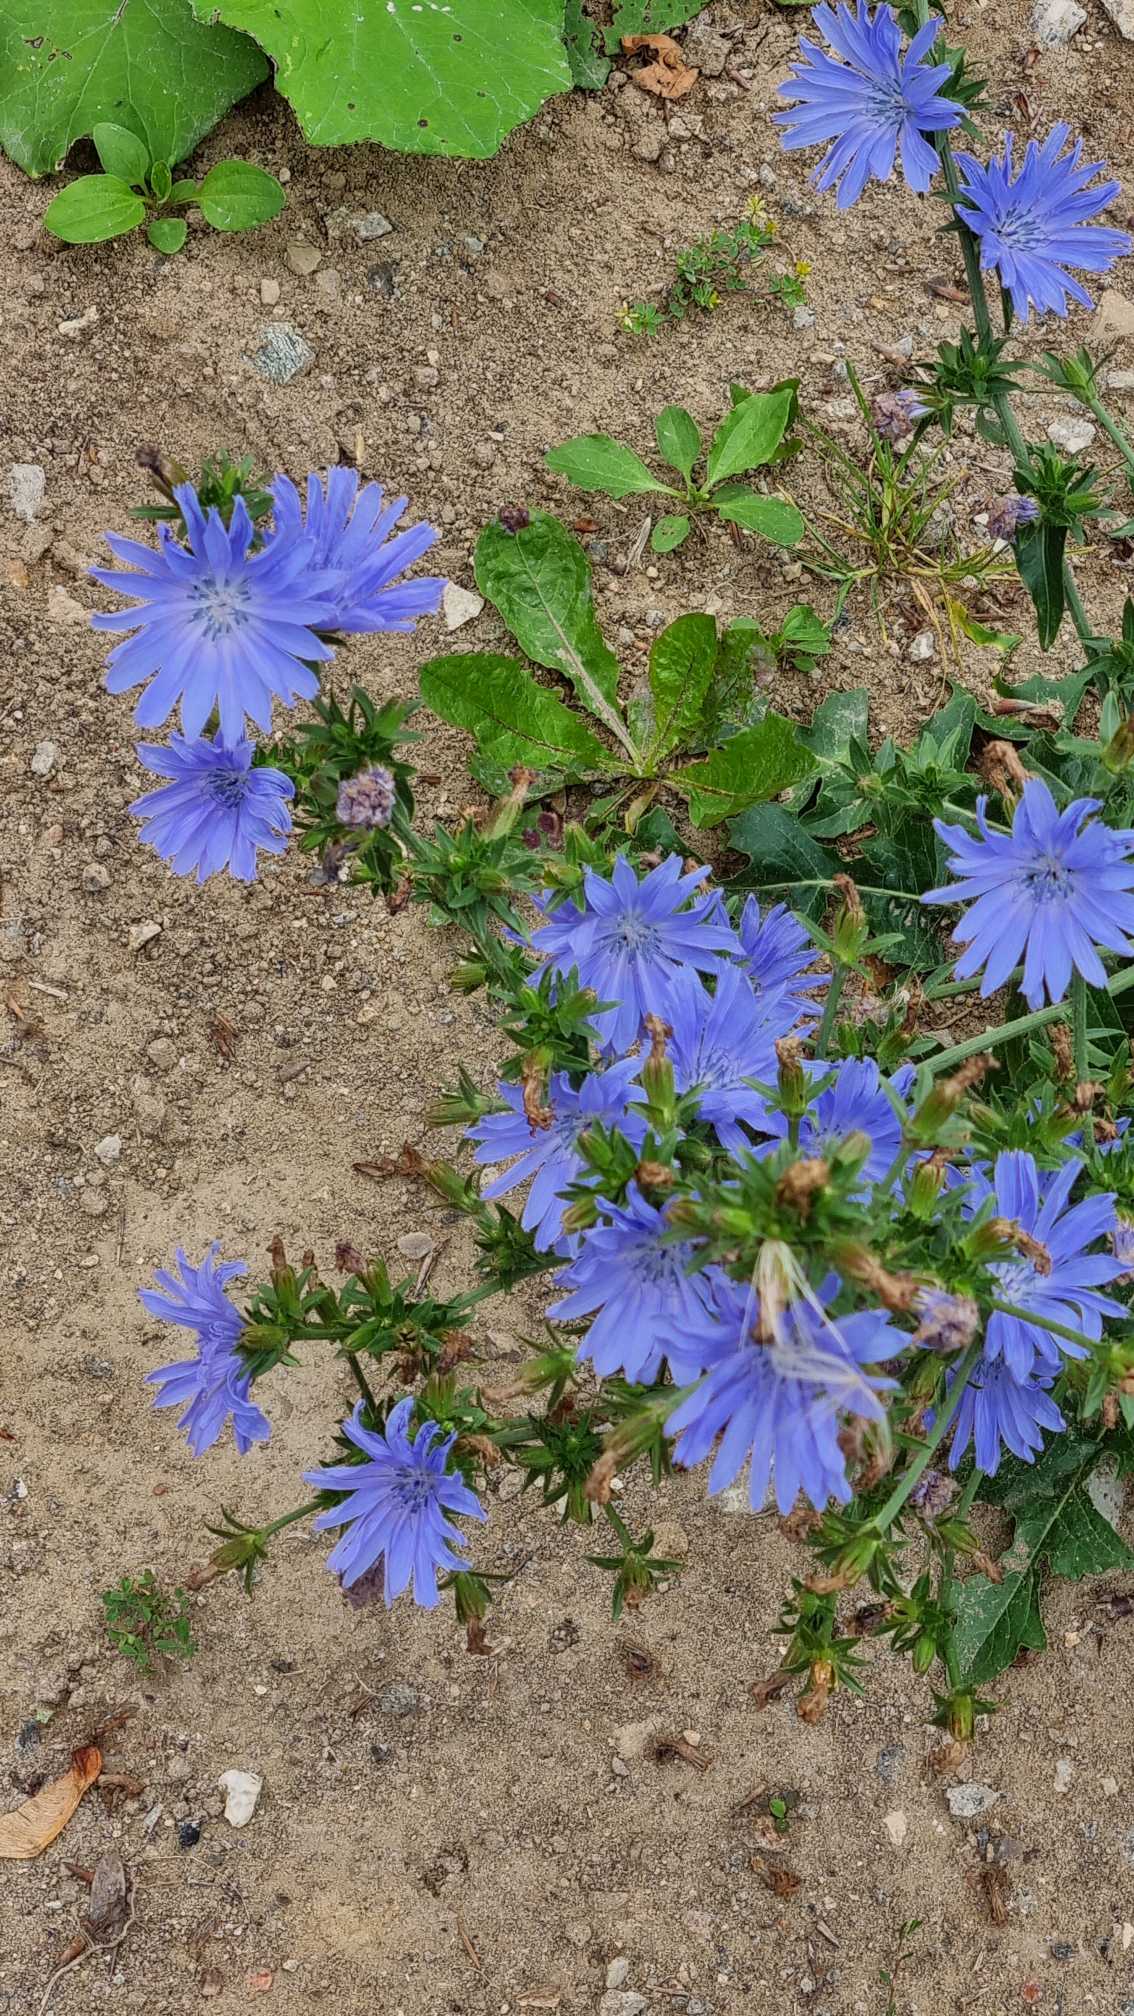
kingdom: Plantae
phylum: Tracheophyta
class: Magnoliopsida
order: Asterales
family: Asteraceae
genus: Cichorium
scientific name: Cichorium intybus
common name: Cikorie
